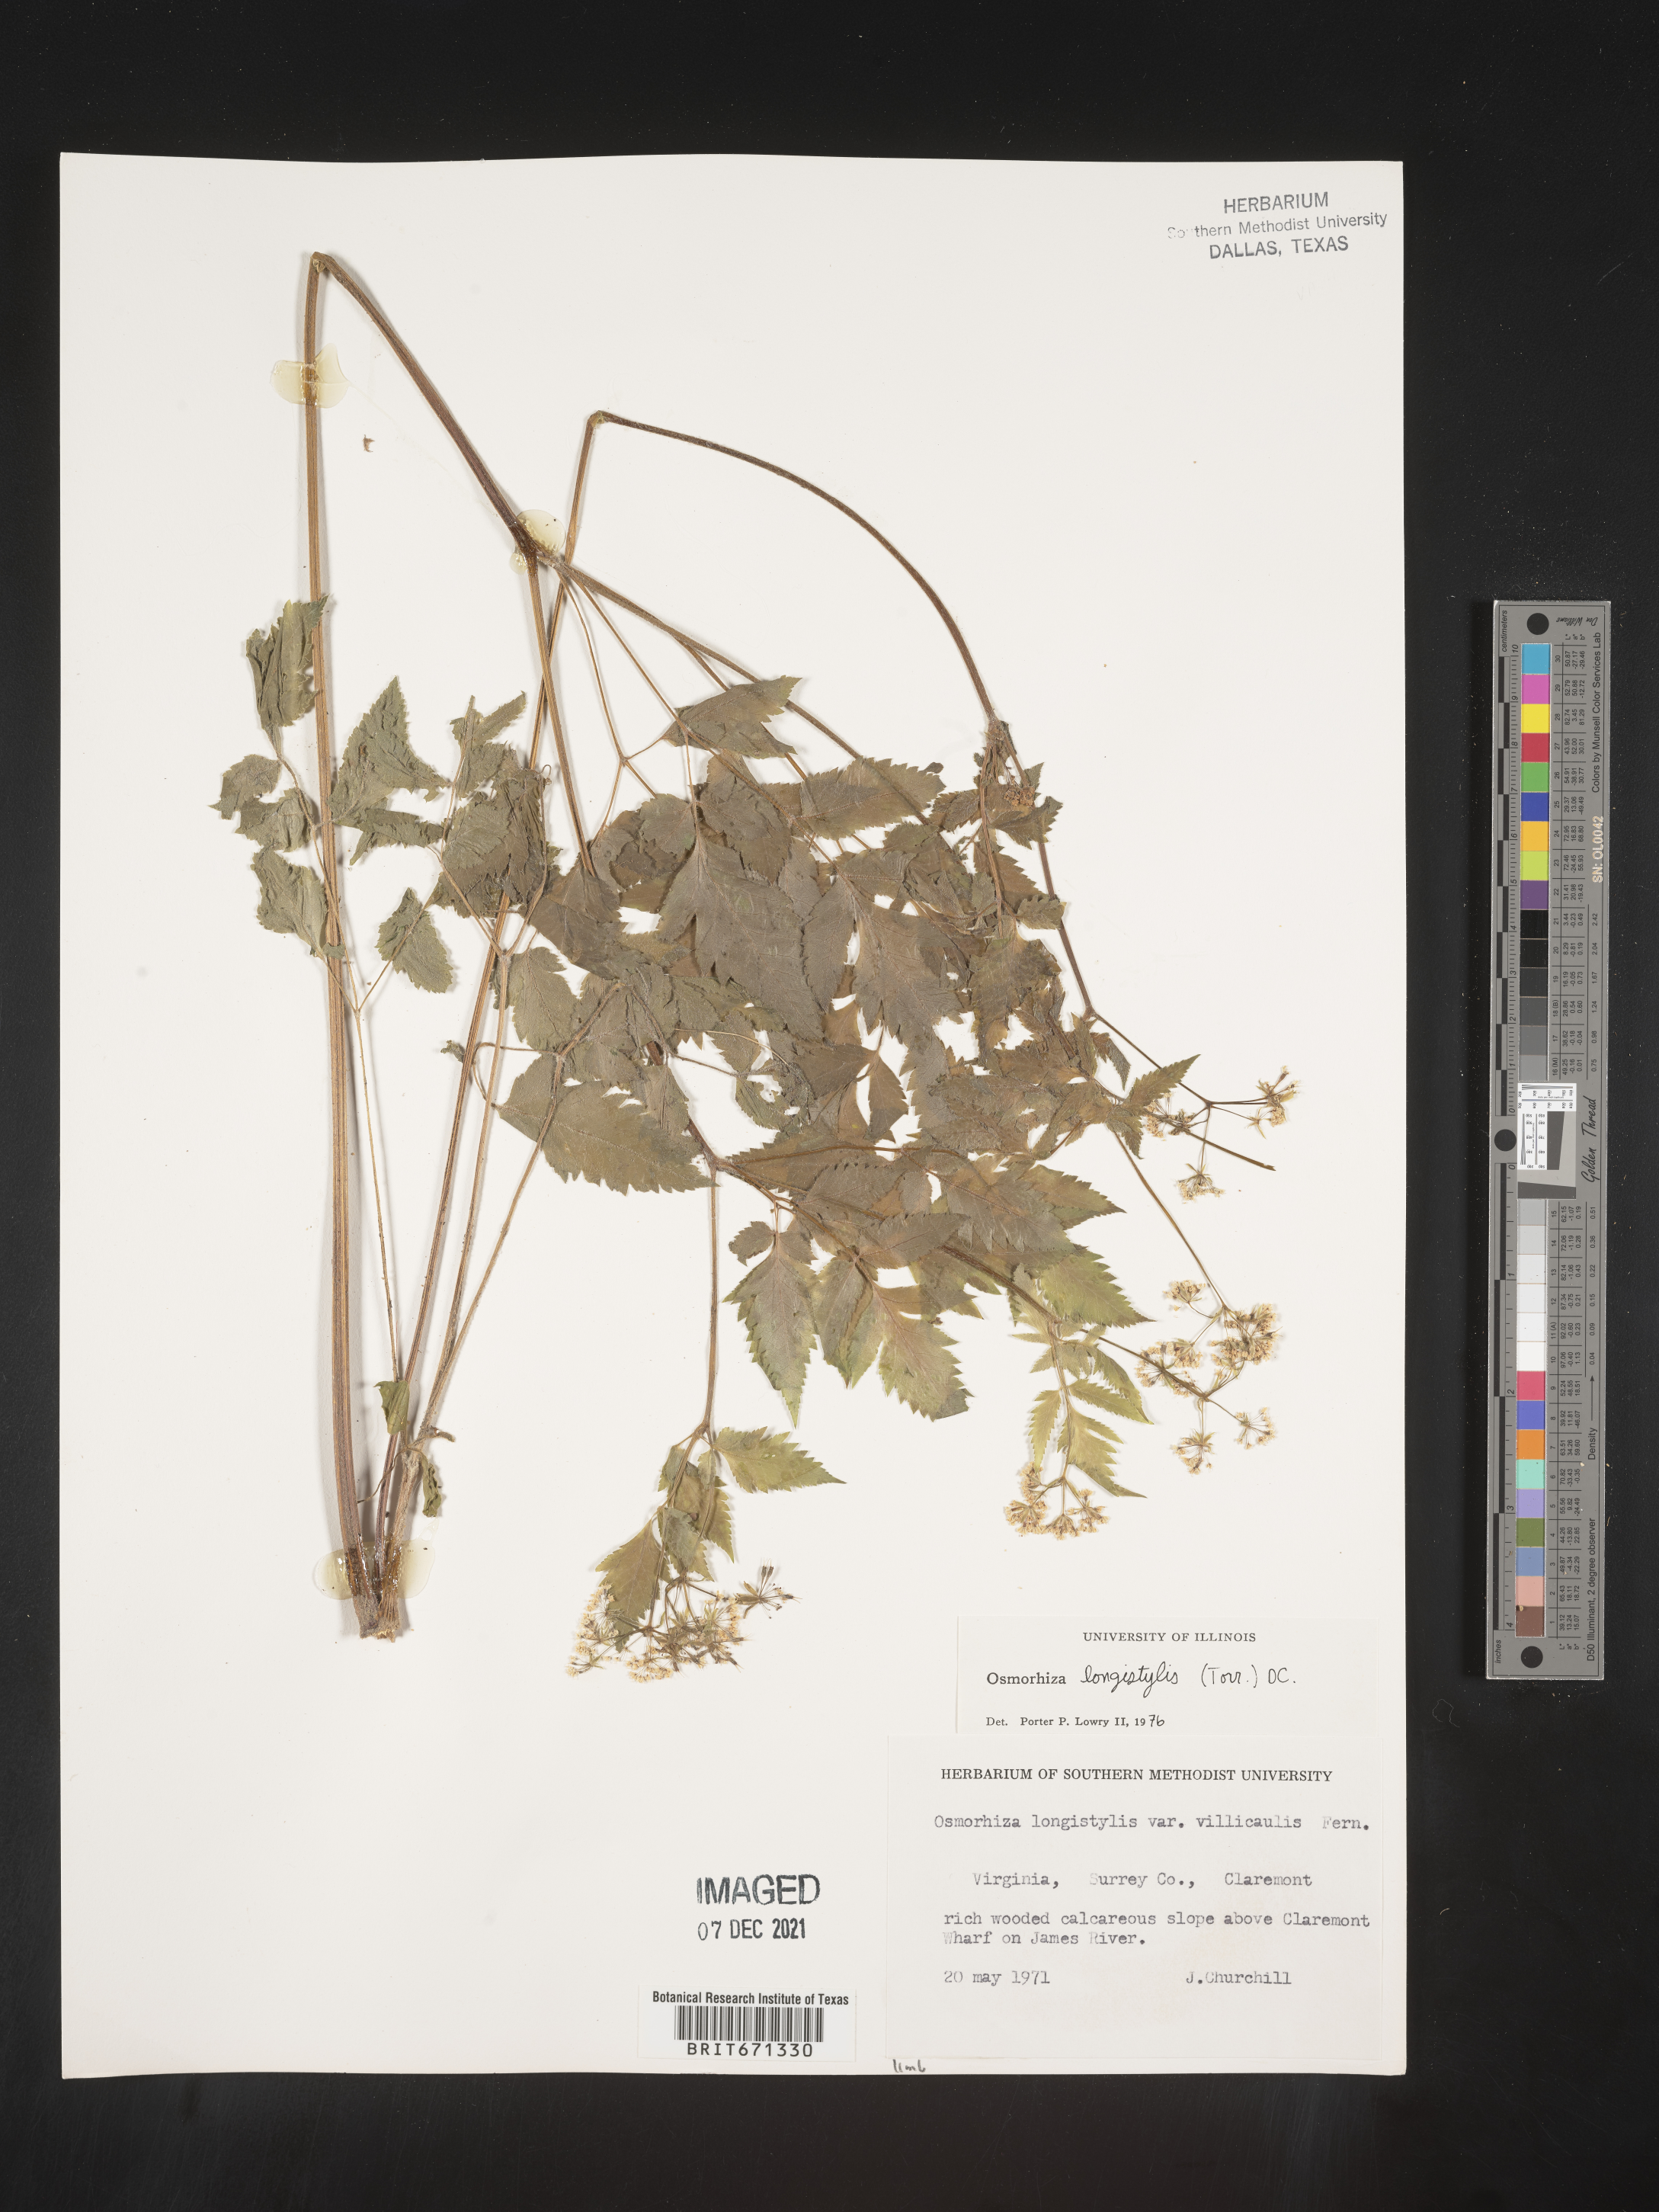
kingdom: Plantae
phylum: Tracheophyta
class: Magnoliopsida
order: Apiales
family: Apiaceae
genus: Osmorhiza
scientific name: Osmorhiza longistylis
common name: Smooth sweet cicely
